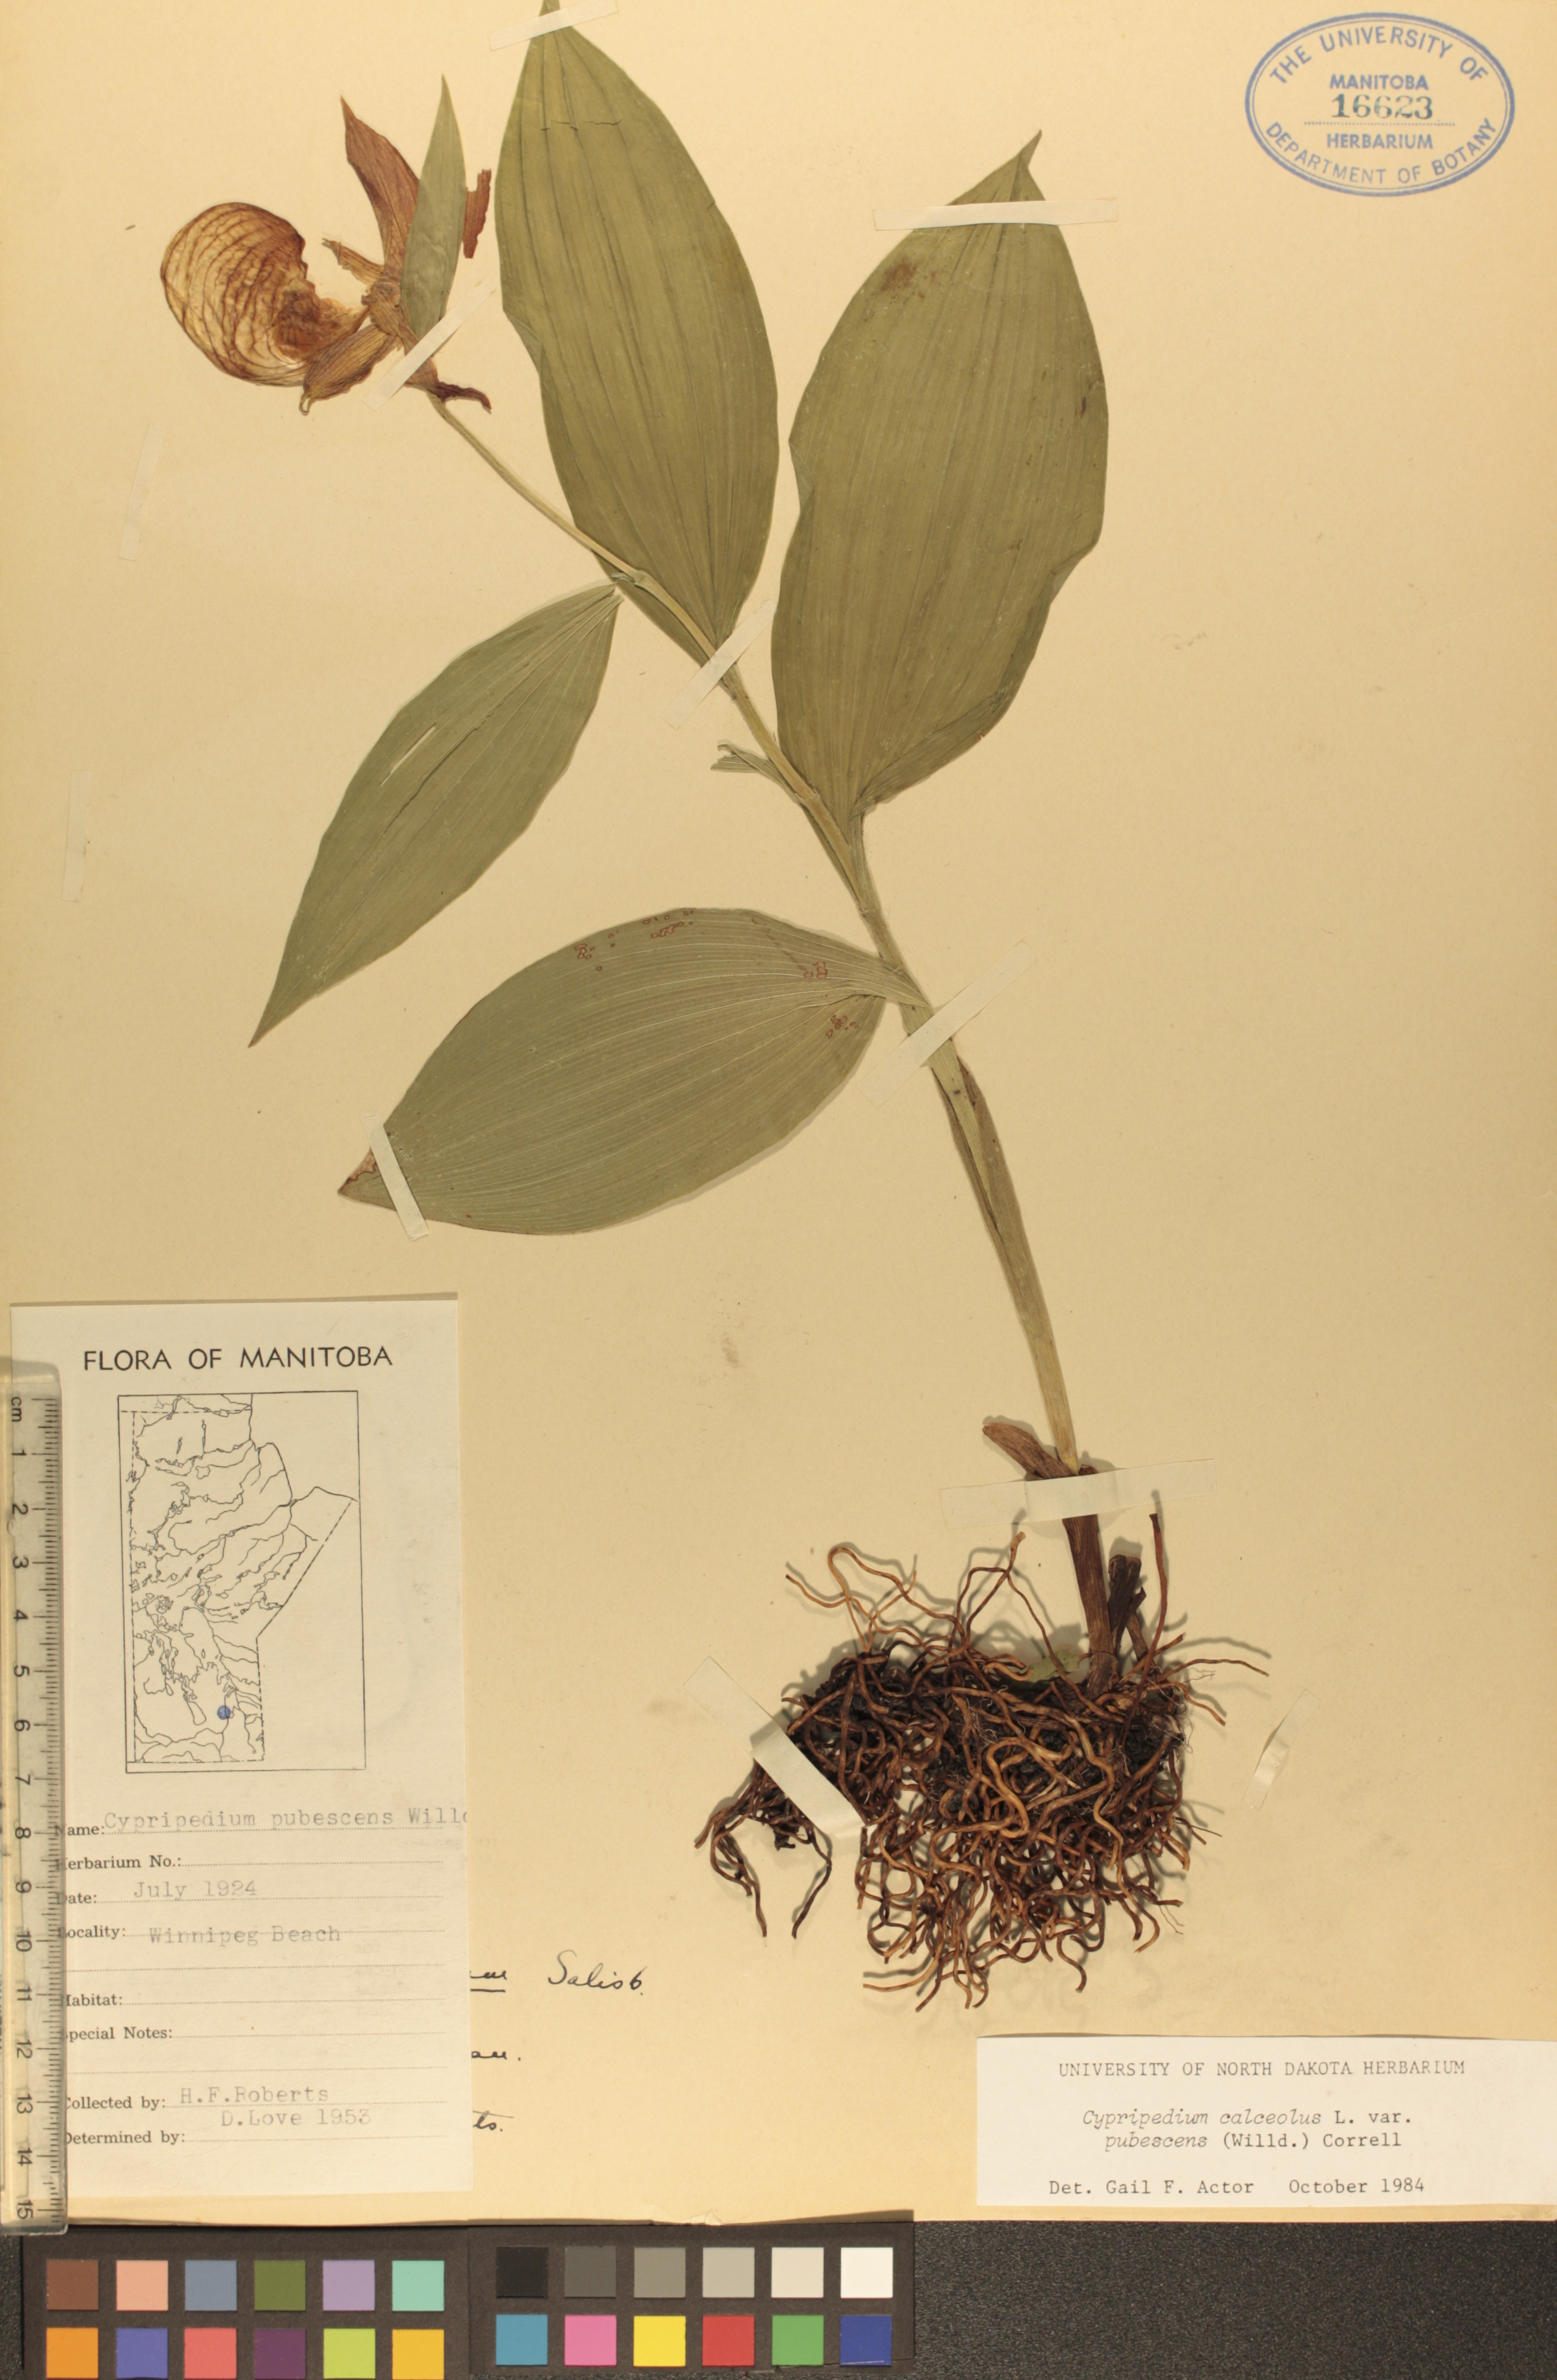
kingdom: Plantae
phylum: Tracheophyta
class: Liliopsida
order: Asparagales
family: Orchidaceae
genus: Cypripedium
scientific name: Cypripedium parviflorum
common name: American yellow lady's-slipper
